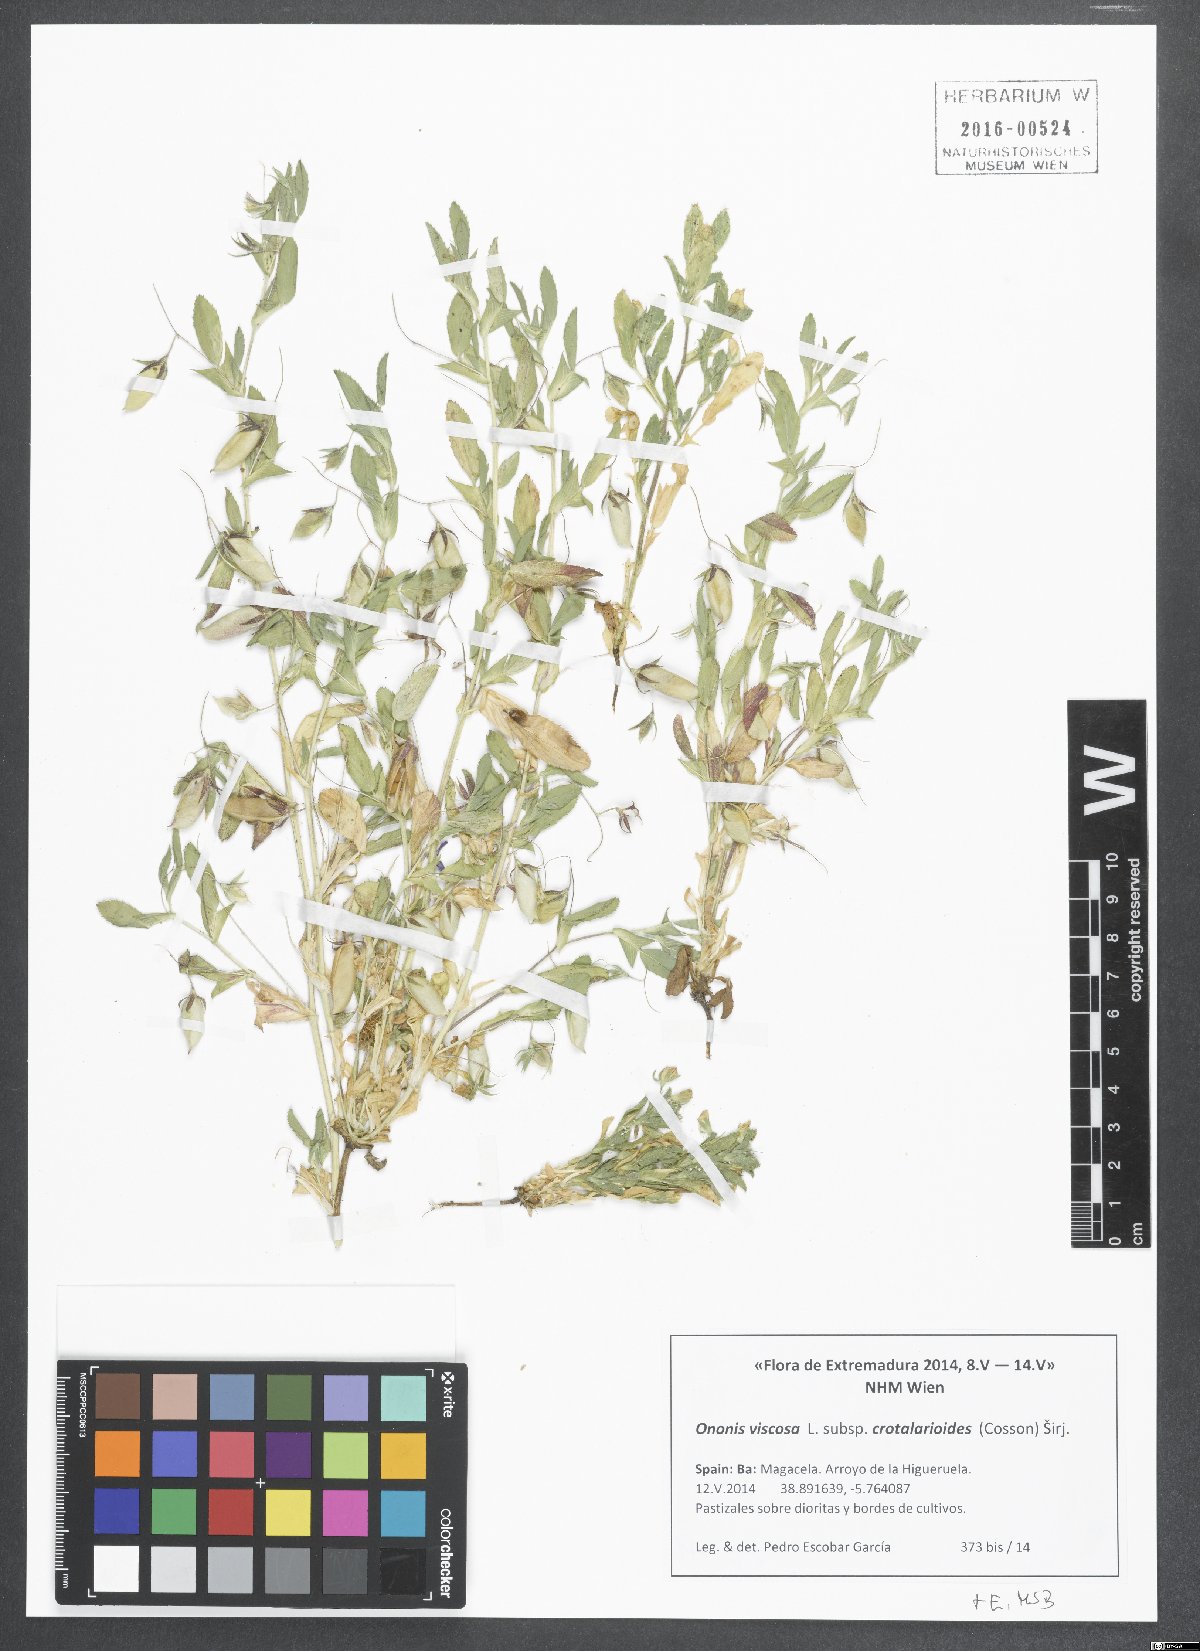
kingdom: Plantae
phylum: Tracheophyta
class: Magnoliopsida
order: Fabales
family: Fabaceae
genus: Ononis
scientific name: Ononis viscosa
